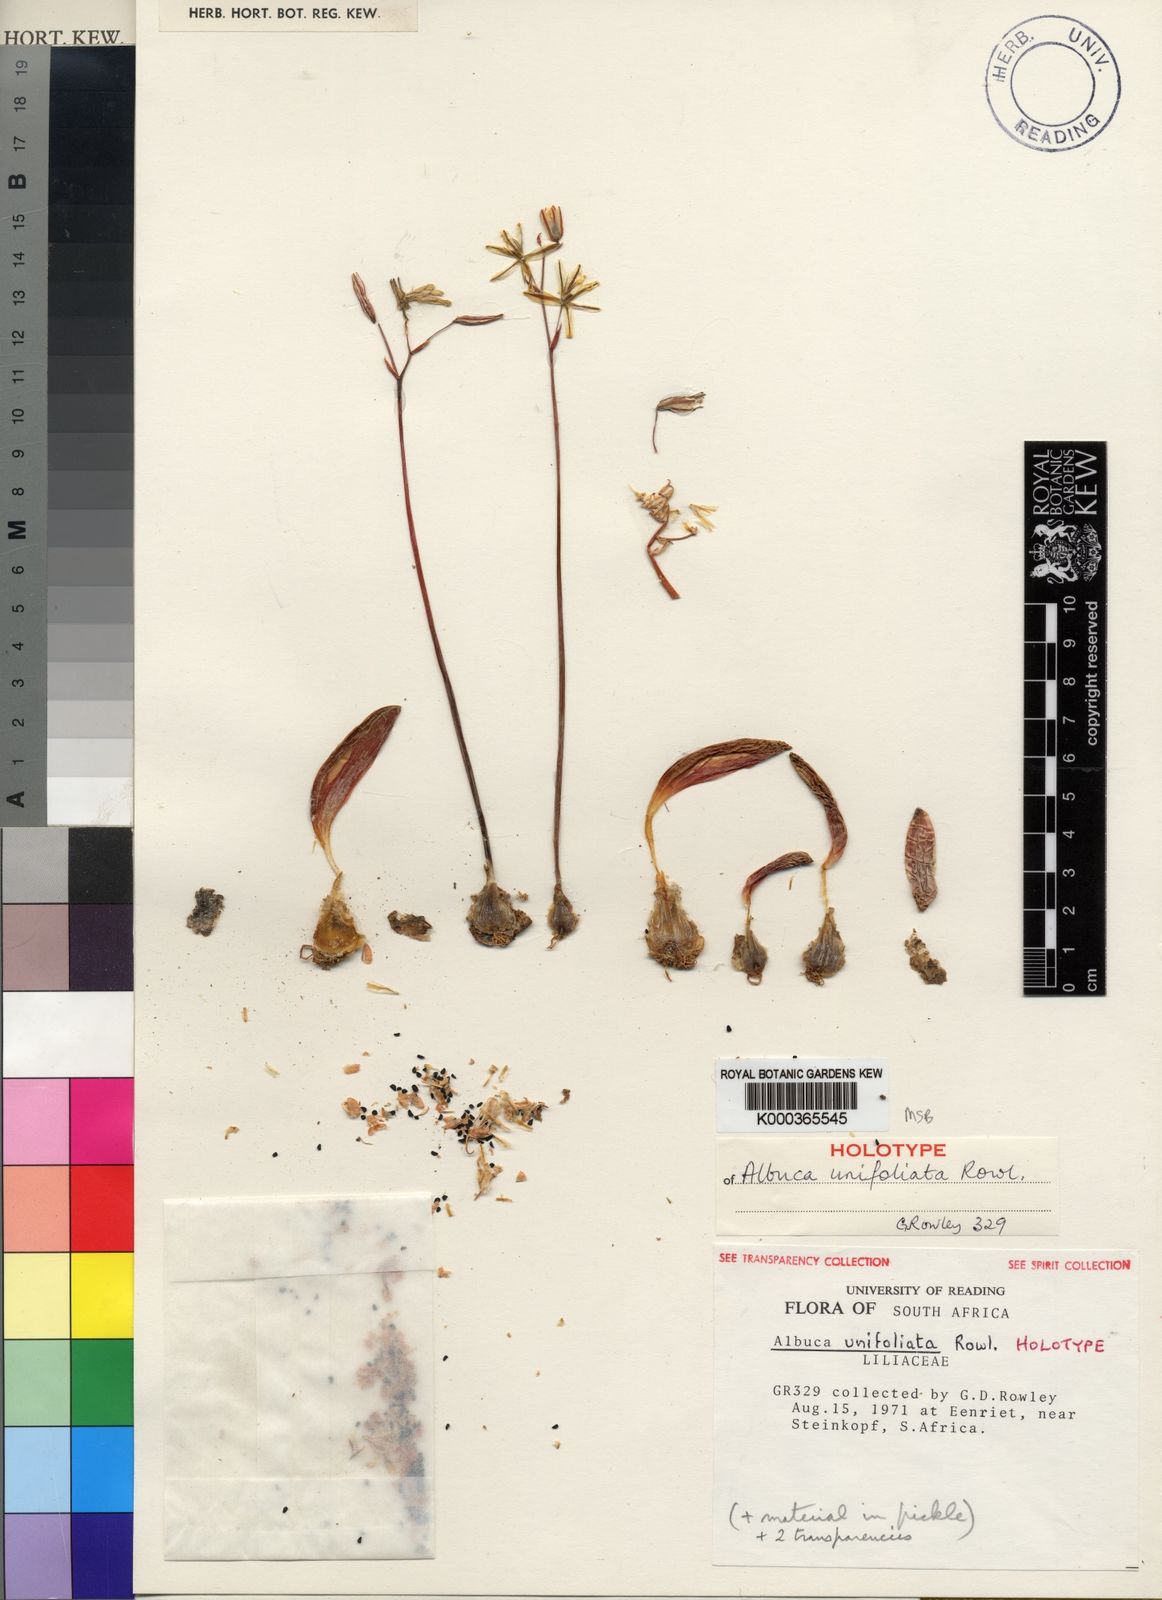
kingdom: Plantae
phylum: Tracheophyta
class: Liliopsida
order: Asparagales
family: Asparagaceae
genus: Albuca
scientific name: Albuca unifoliata
